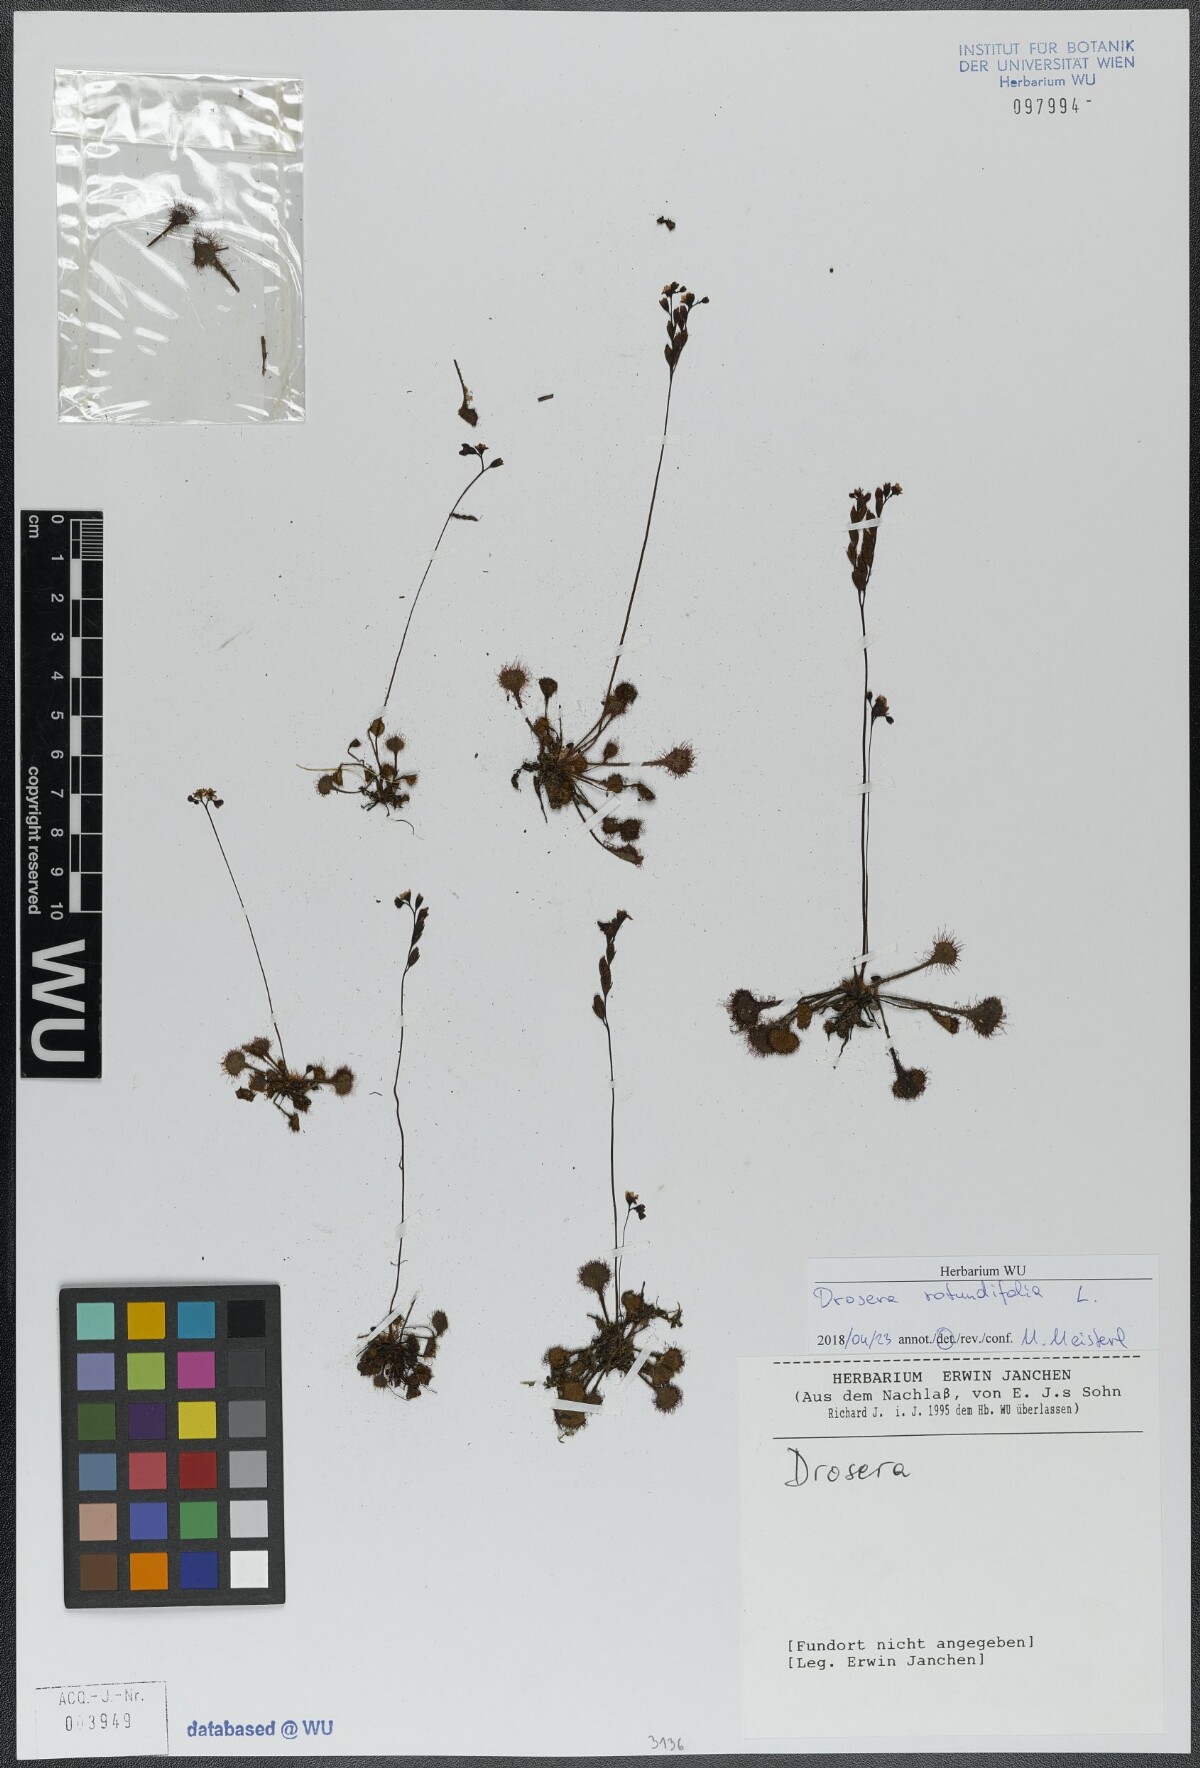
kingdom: Plantae
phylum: Tracheophyta
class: Magnoliopsida
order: Caryophyllales
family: Droseraceae
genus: Drosera
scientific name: Drosera rotundifolia
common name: Round-leaved sundew
